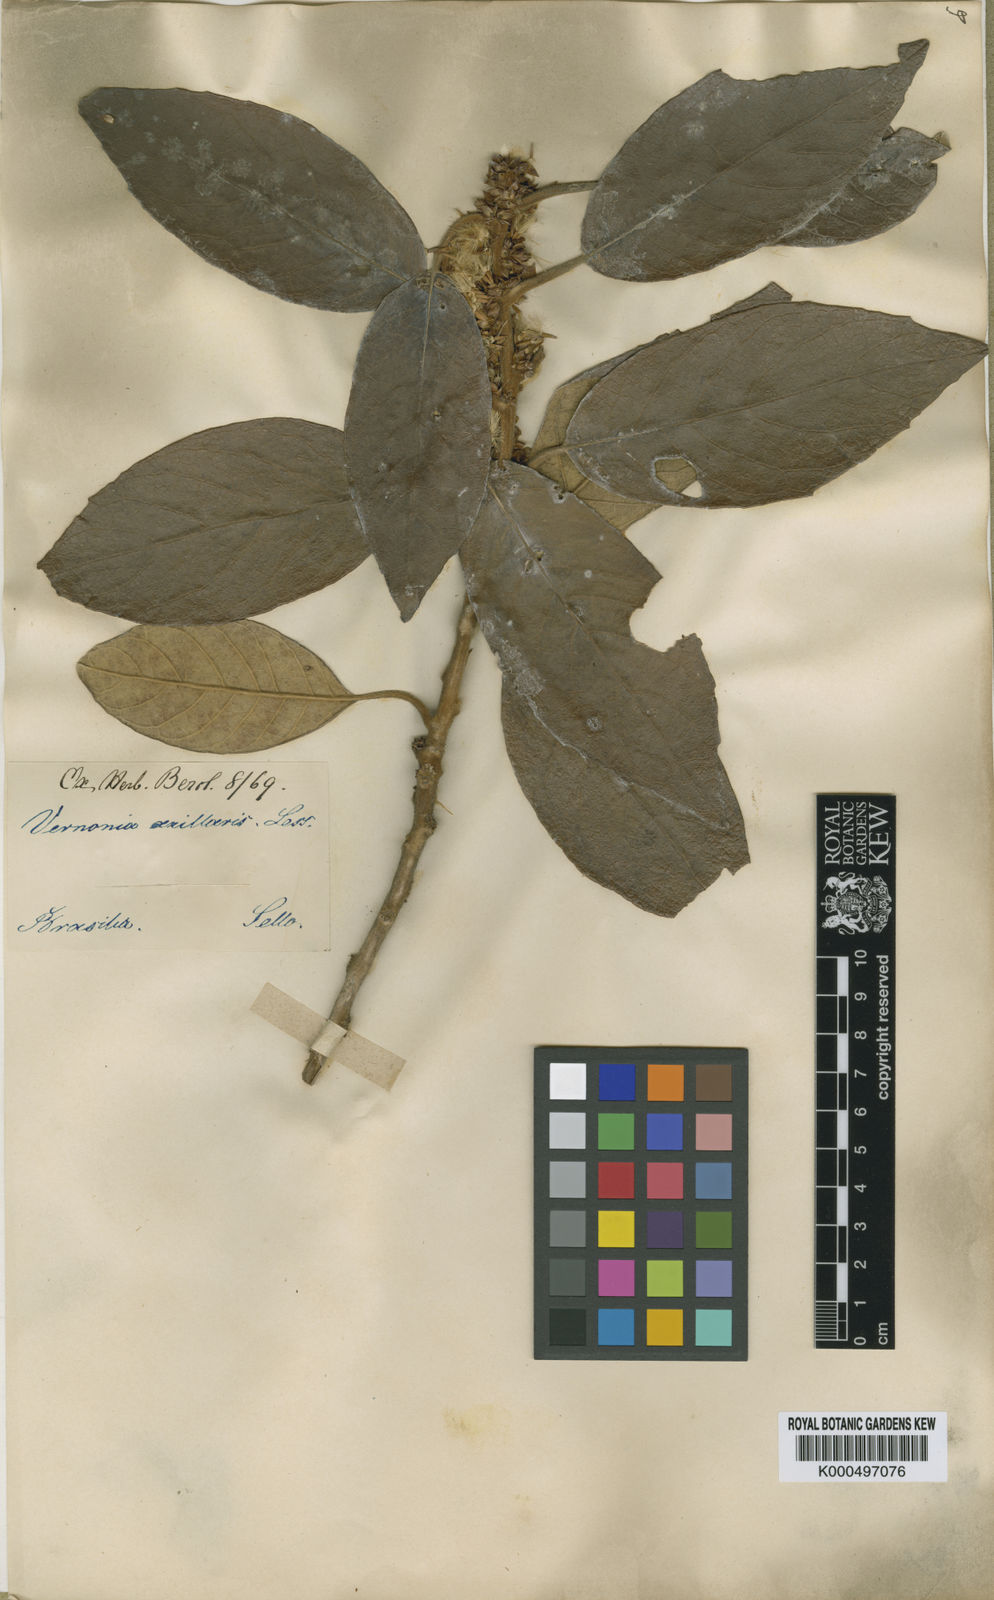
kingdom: Plantae
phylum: Tracheophyta
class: Magnoliopsida
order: Asterales
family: Asteraceae
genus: Piptocarpha
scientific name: Piptocarpha regnellii
